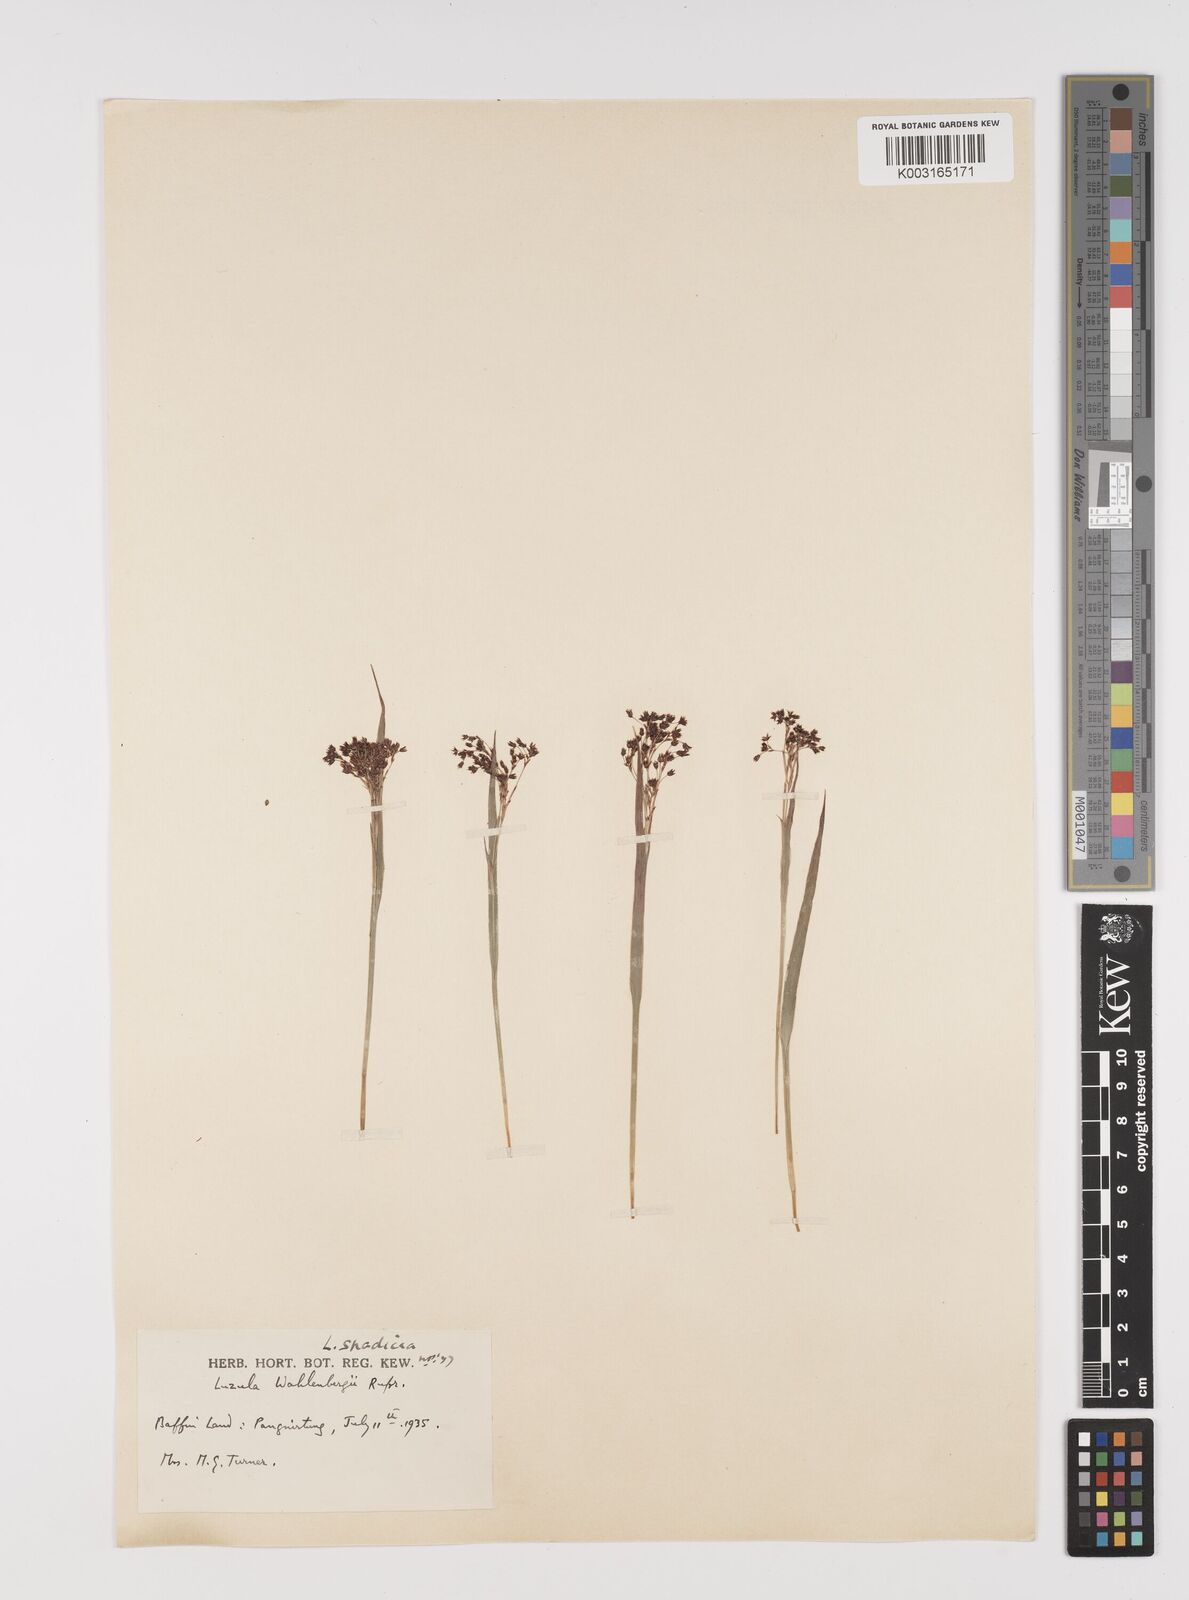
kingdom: Plantae
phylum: Tracheophyta
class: Liliopsida
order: Poales
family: Juncaceae
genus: Luzula
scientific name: Luzula wahlenbergii
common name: Wahlenberg's wood-rush
